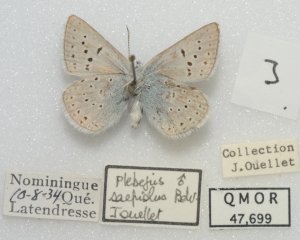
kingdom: Animalia
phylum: Arthropoda
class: Insecta
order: Lepidoptera
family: Lycaenidae
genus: Plebejus
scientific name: Plebejus saepiolus
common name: Greenish Blue
